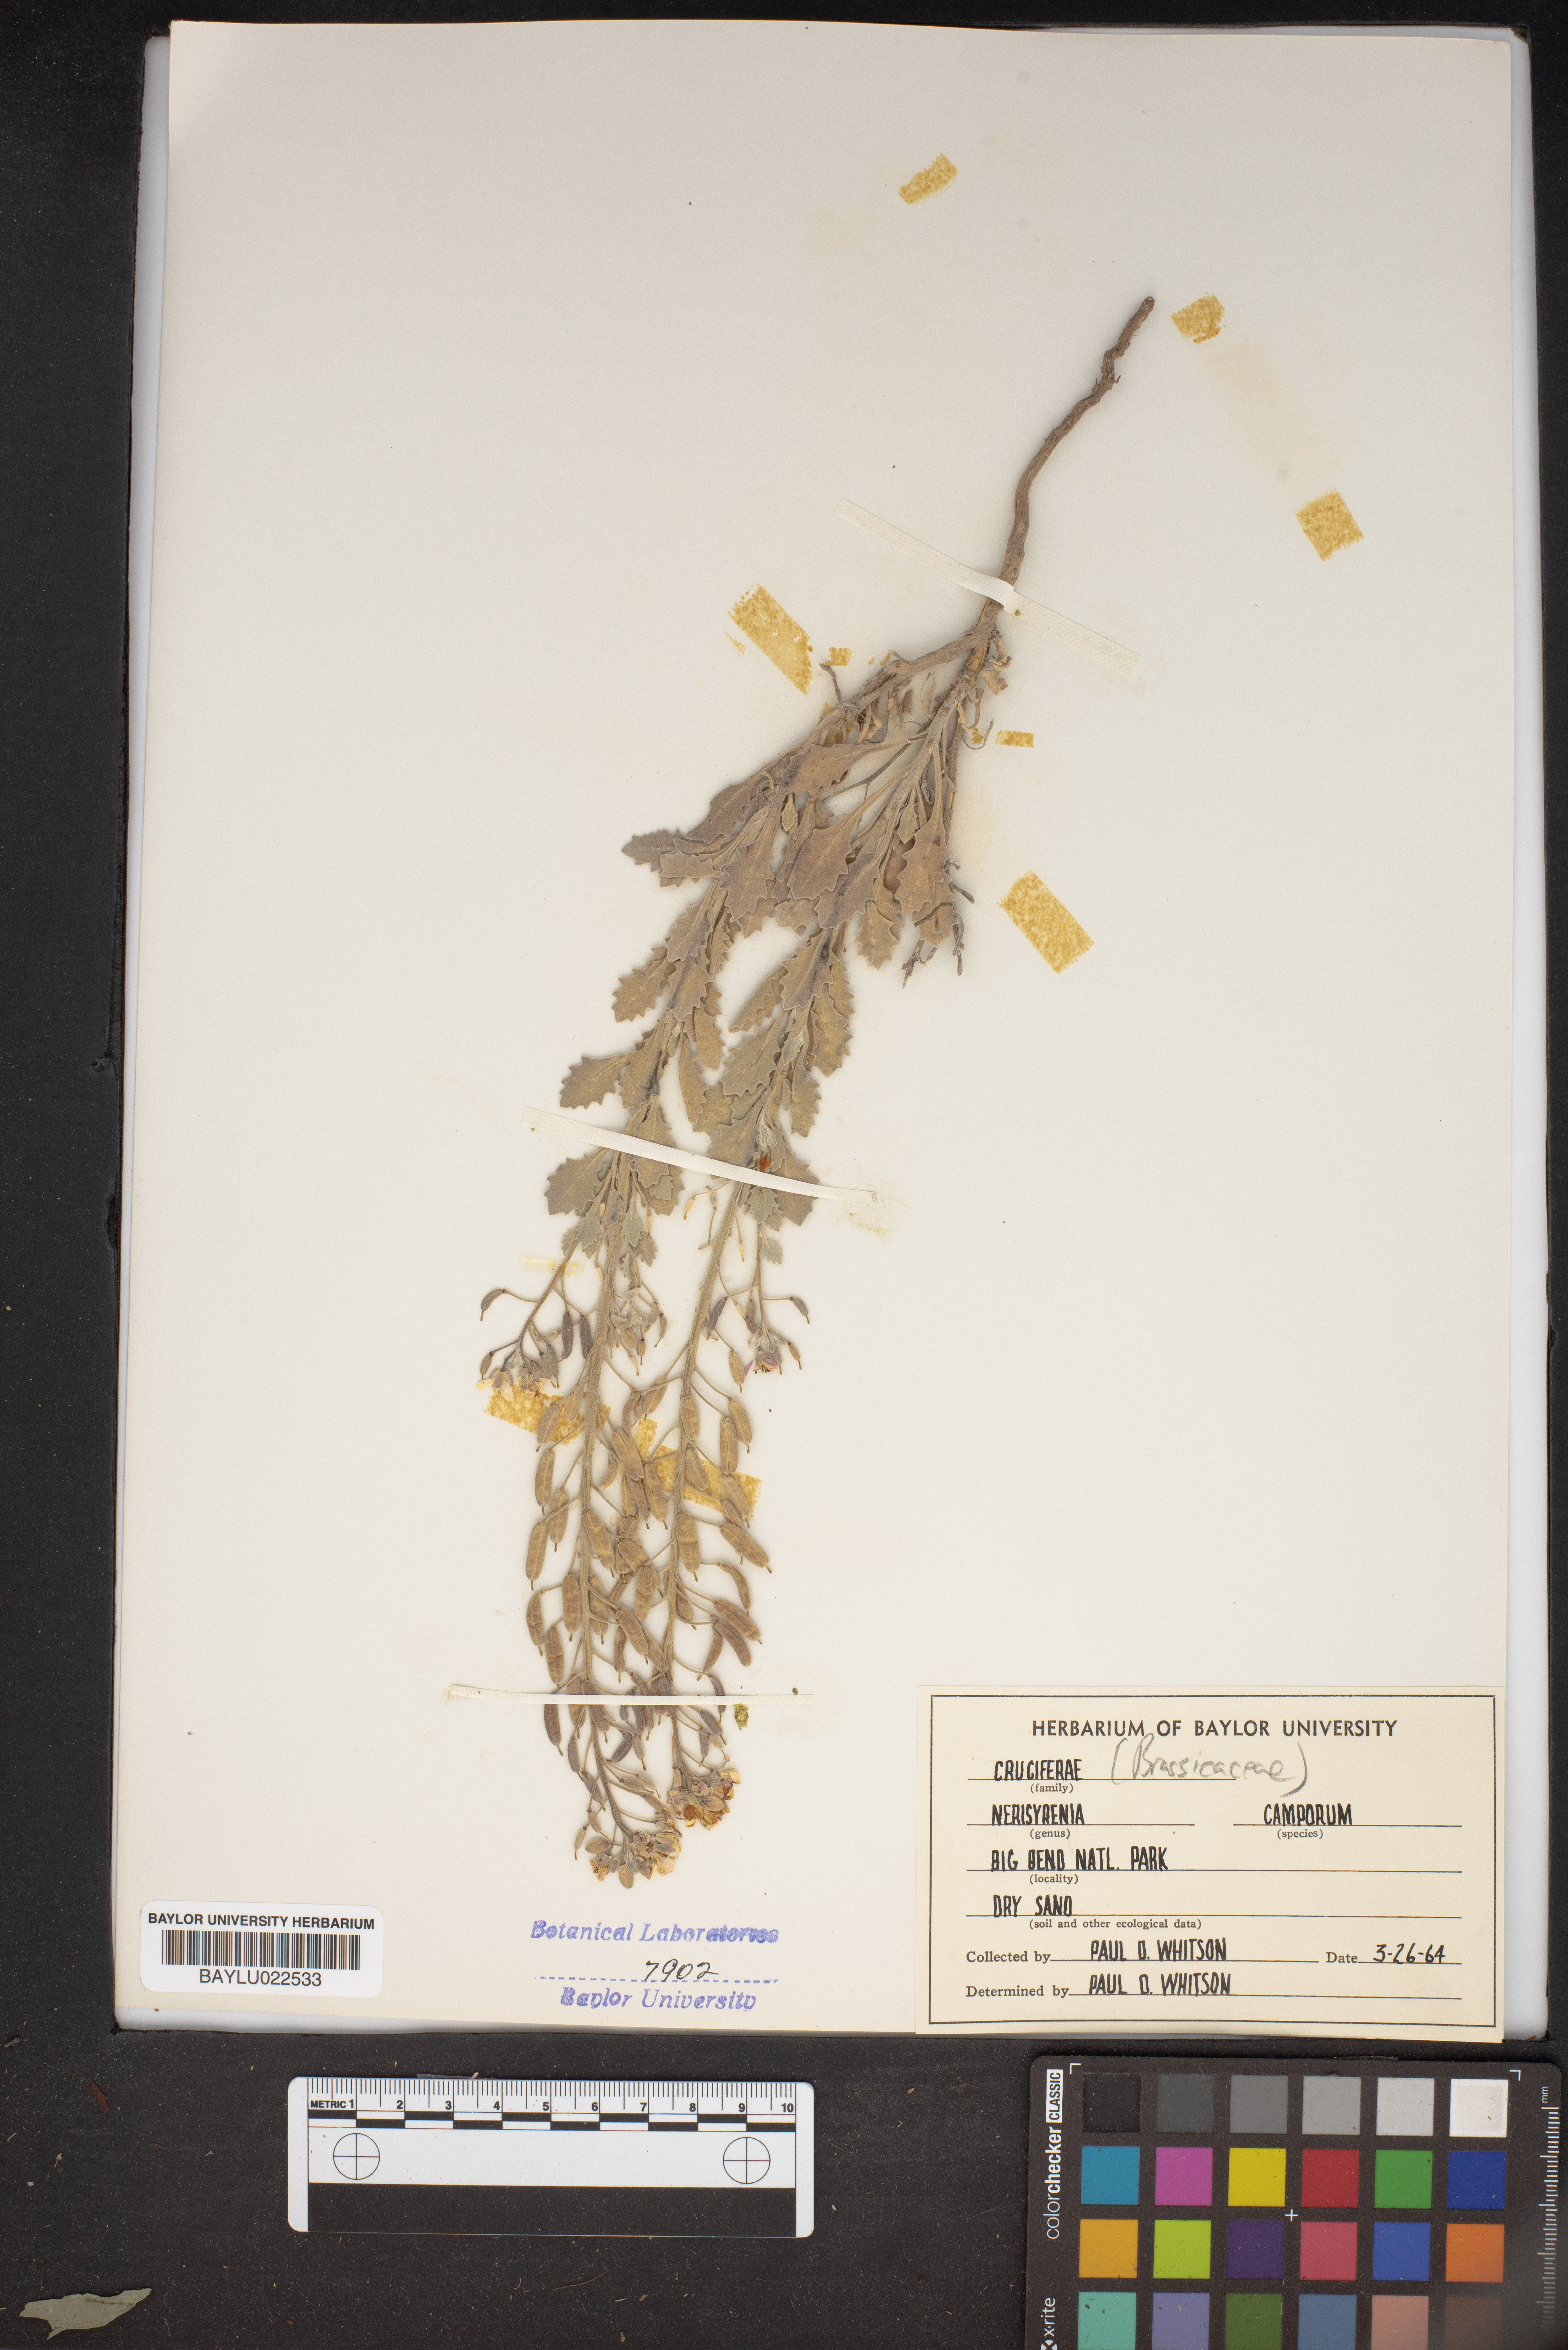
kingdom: Plantae
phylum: Tracheophyta
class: Magnoliopsida
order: Brassicales
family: Brassicaceae
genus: Nerisyrenia
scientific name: Nerisyrenia camporum
